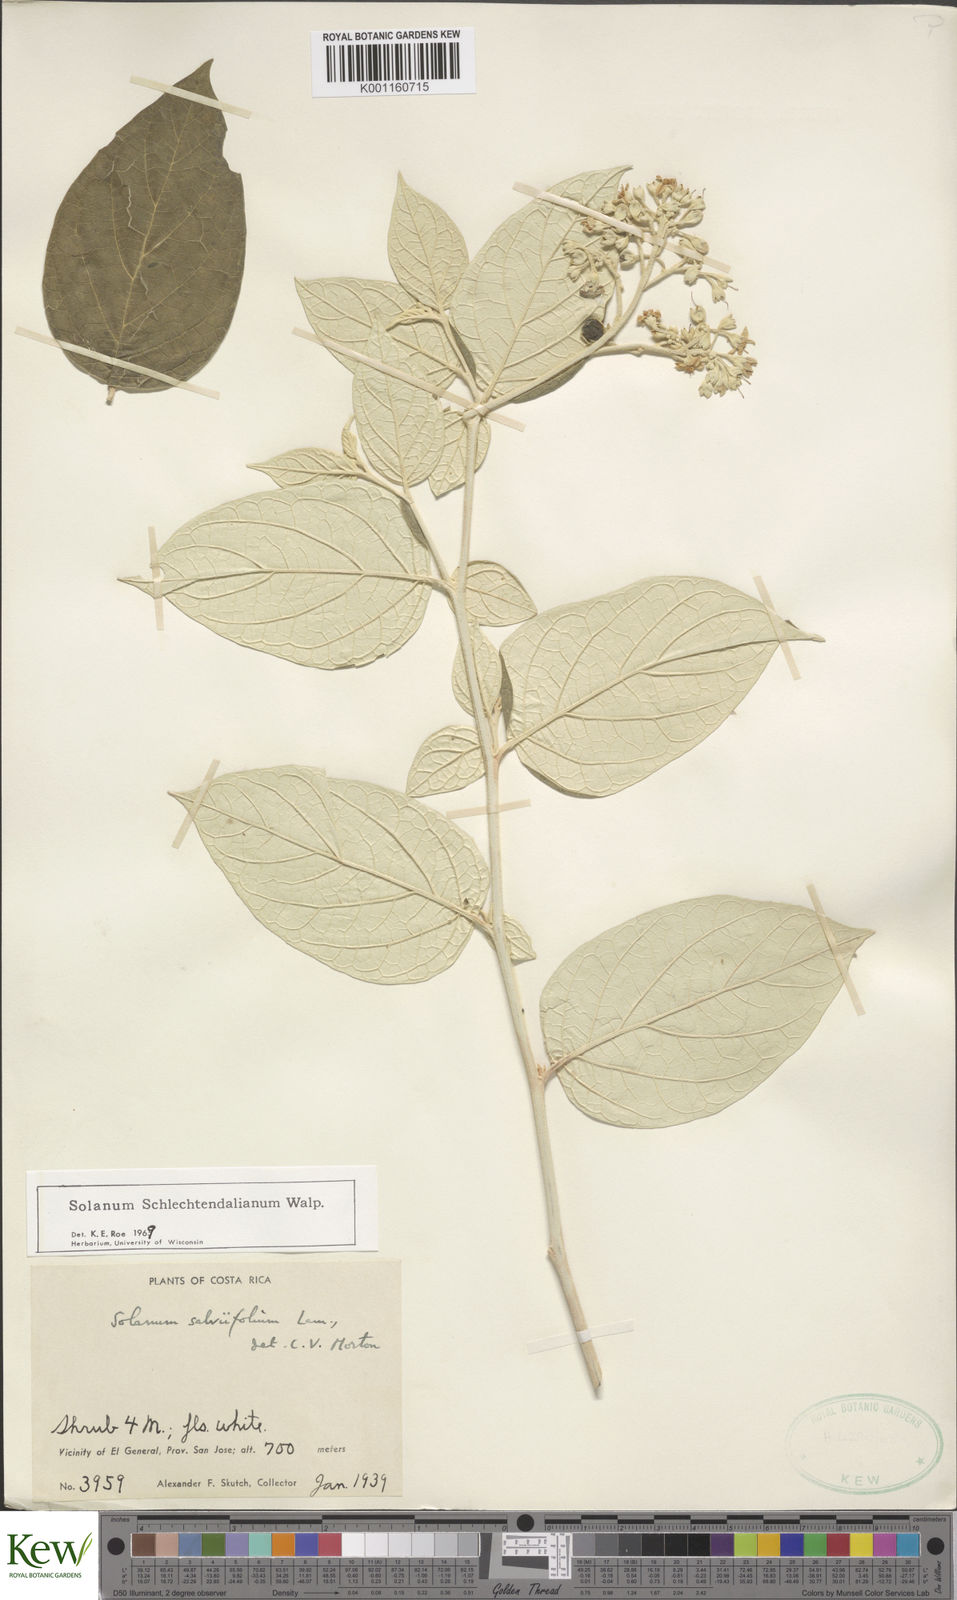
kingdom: Plantae
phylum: Tracheophyta
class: Magnoliopsida
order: Solanales
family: Solanaceae
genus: Solanum
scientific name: Solanum schlechtendalianum
